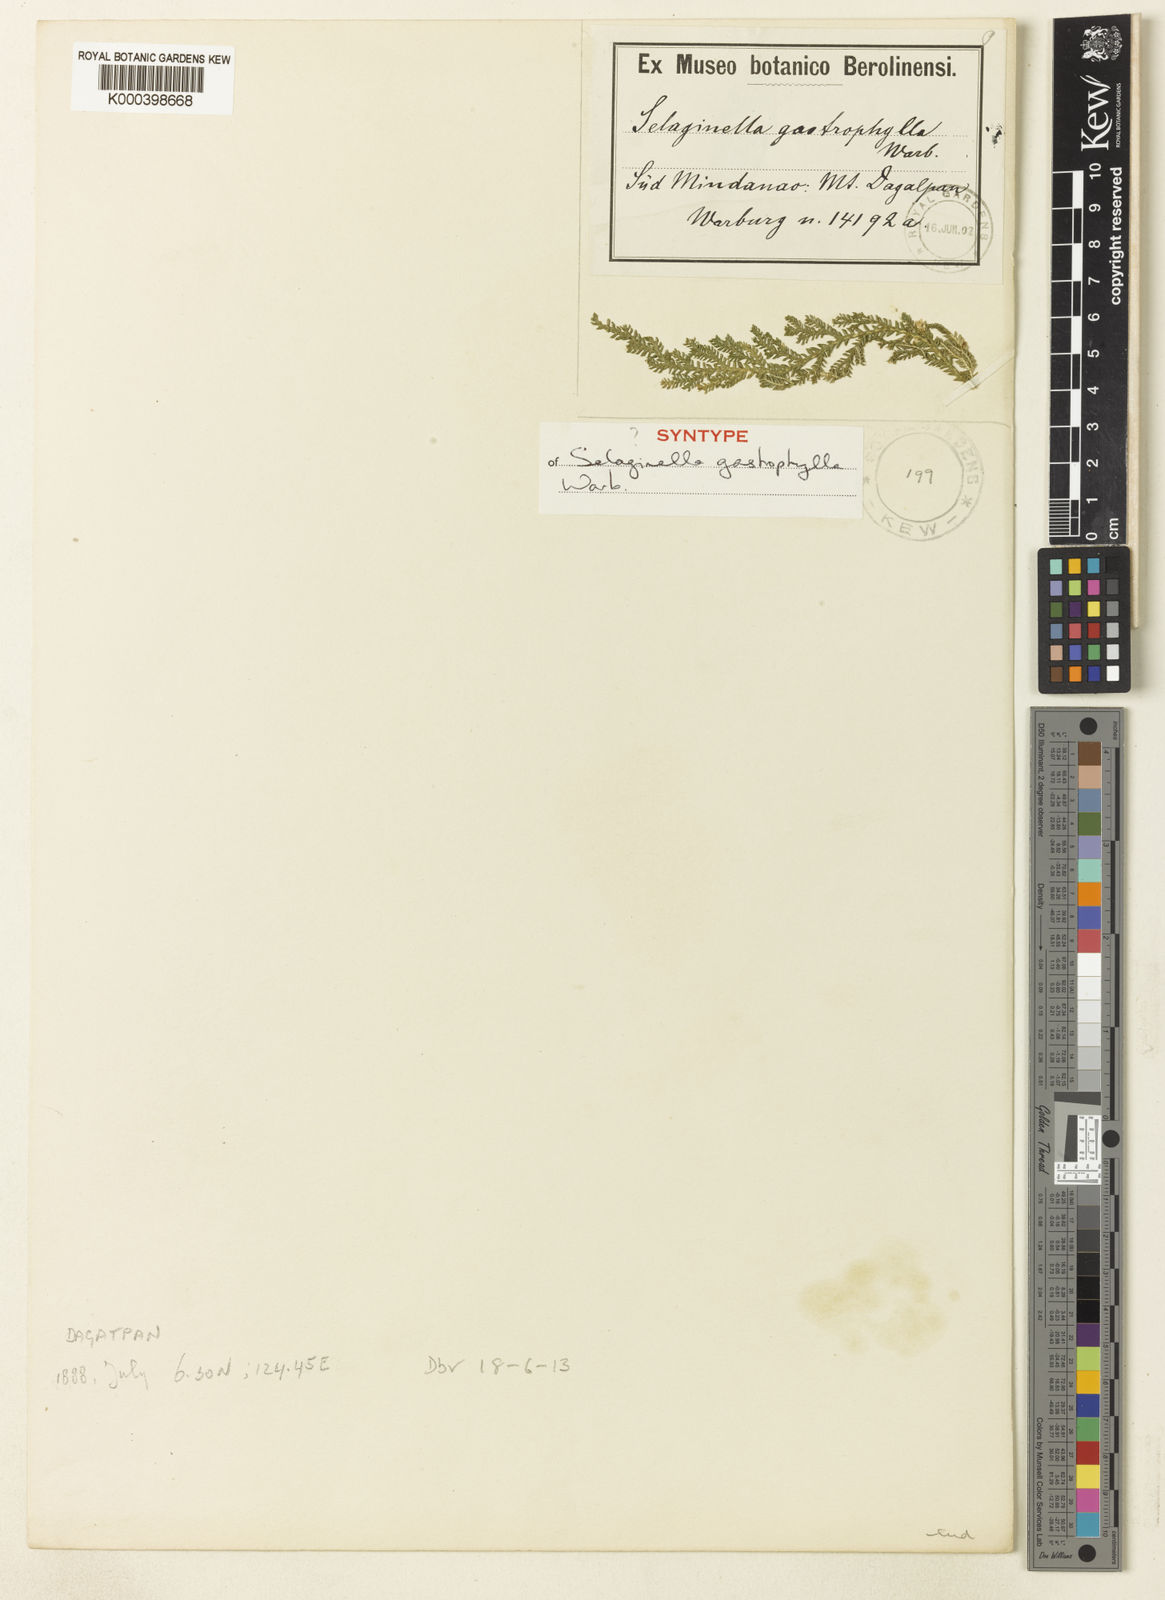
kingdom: Plantae
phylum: Tracheophyta
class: Lycopodiopsida
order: Selaginellales
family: Selaginellaceae
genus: Selaginella
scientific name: Selaginella gastrophylla
